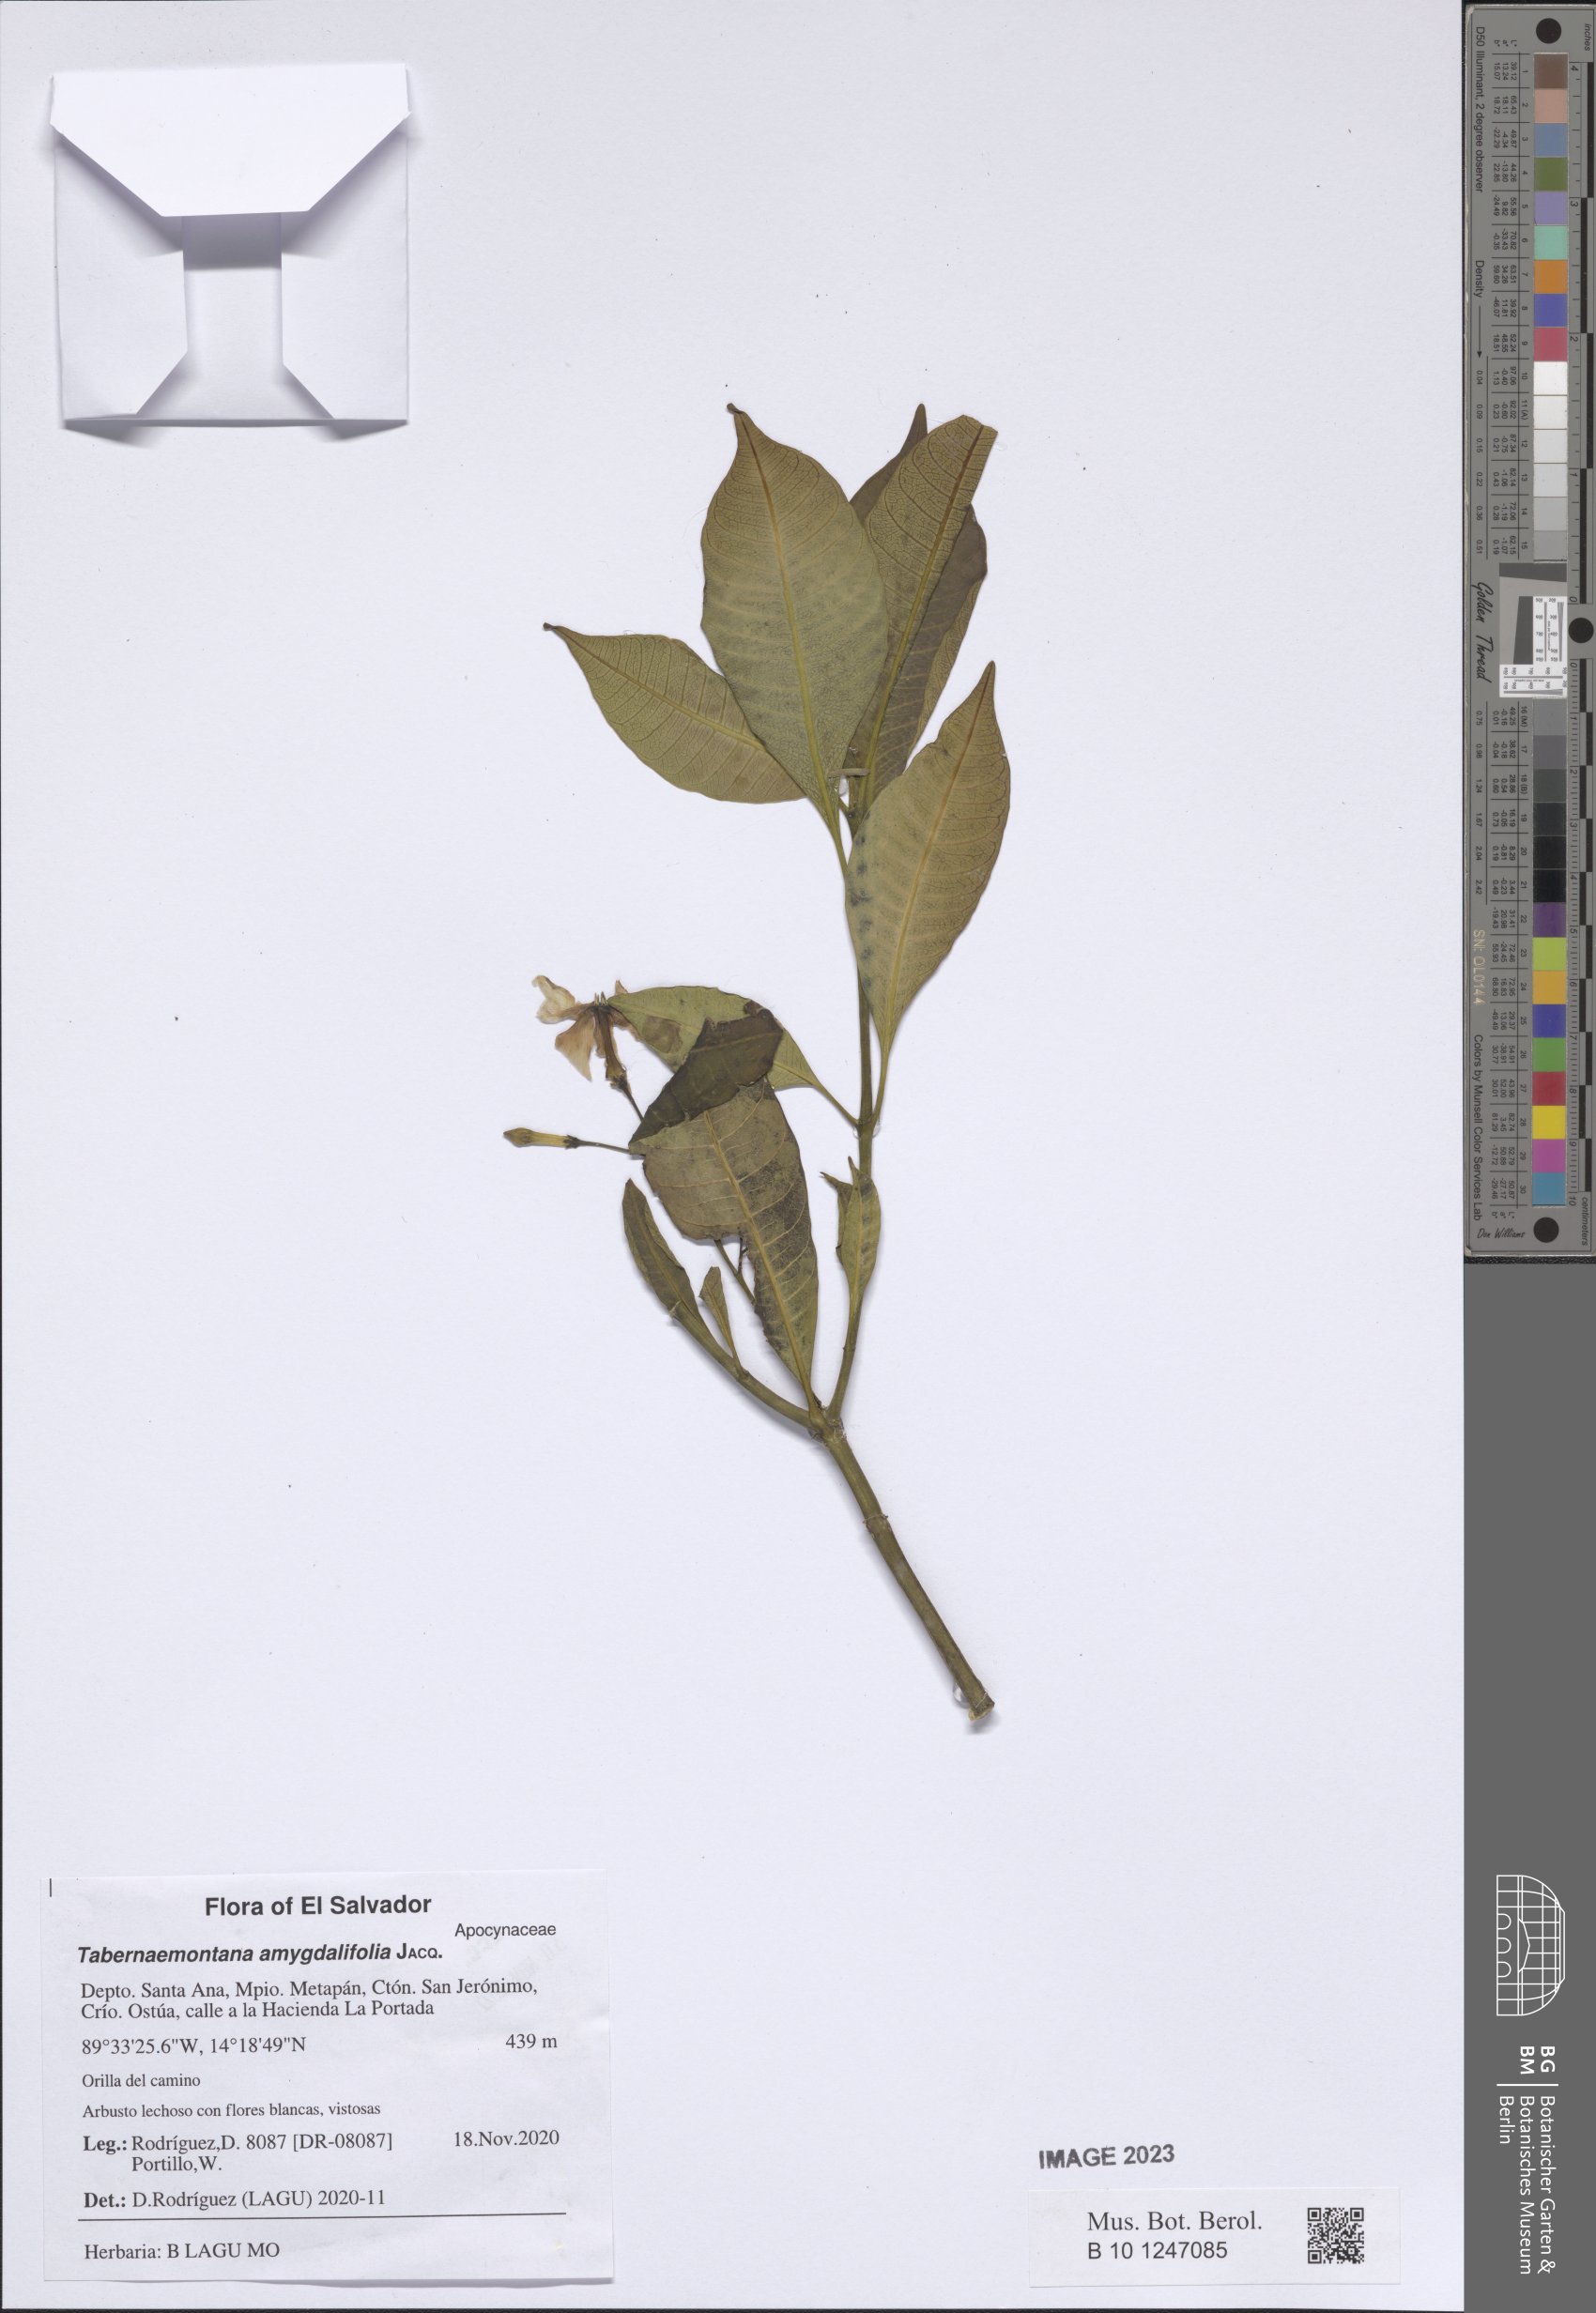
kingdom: Plantae
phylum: Tracheophyta
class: Magnoliopsida
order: Gentianales
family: Apocynaceae
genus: Tabernaemontana
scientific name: Tabernaemontana amygdalifolia
